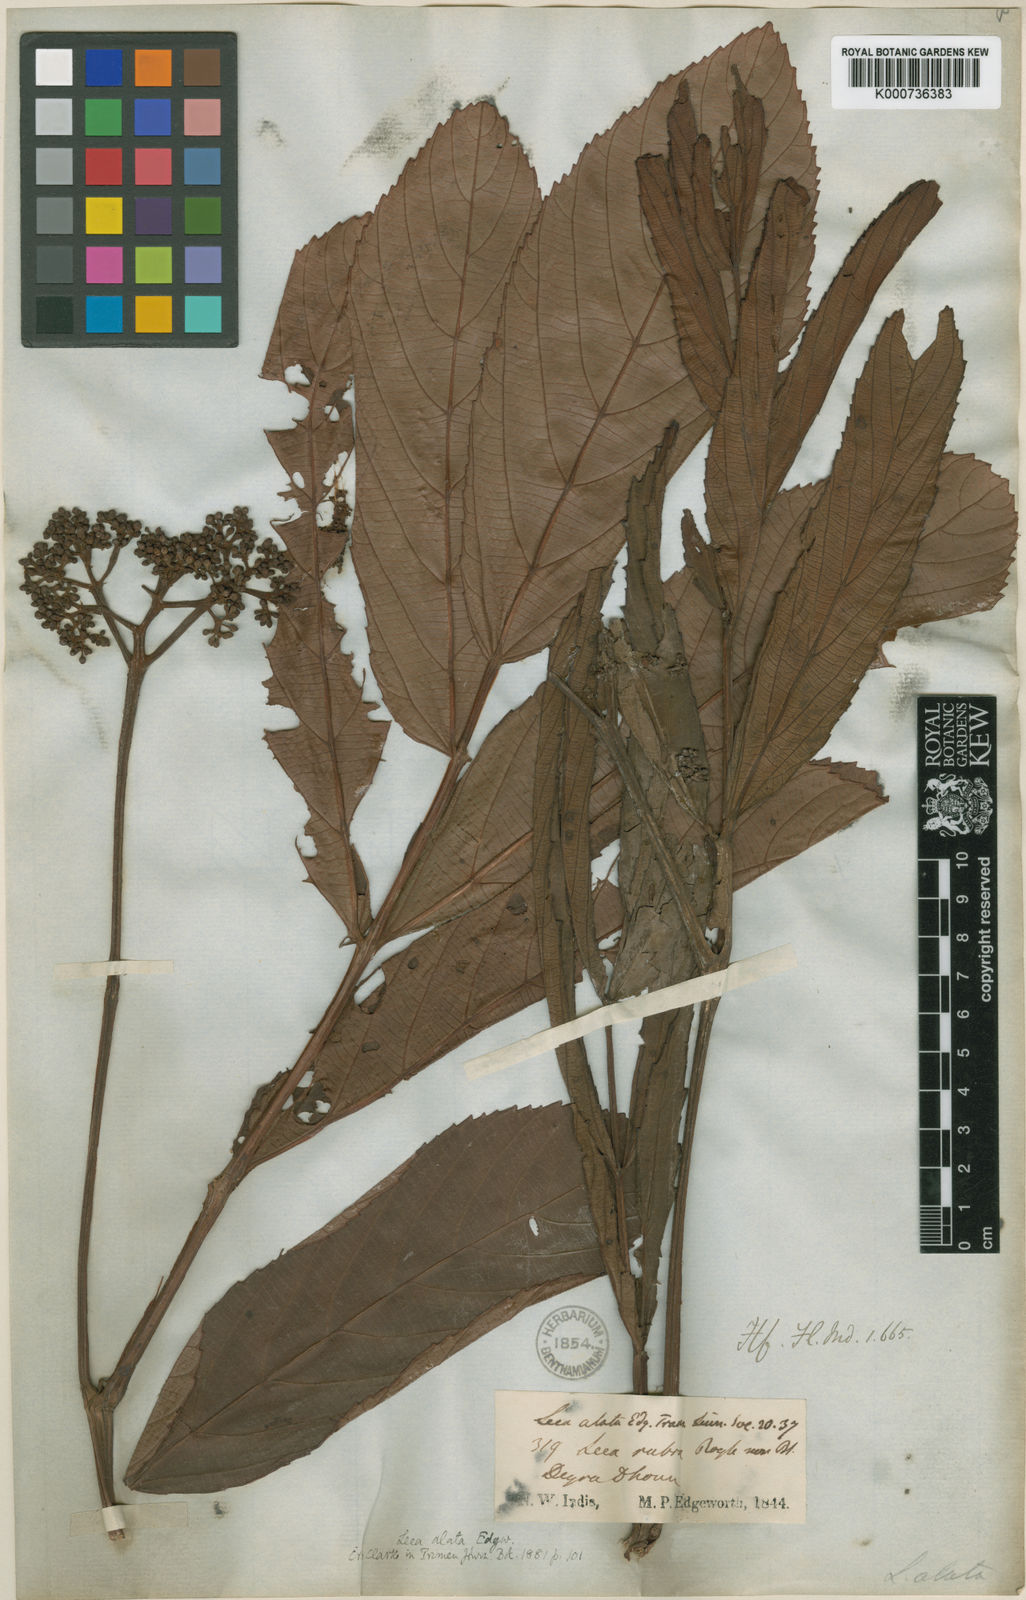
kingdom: Plantae
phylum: Tracheophyta
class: Magnoliopsida
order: Vitales
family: Vitaceae
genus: Leea
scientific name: Leea alata
